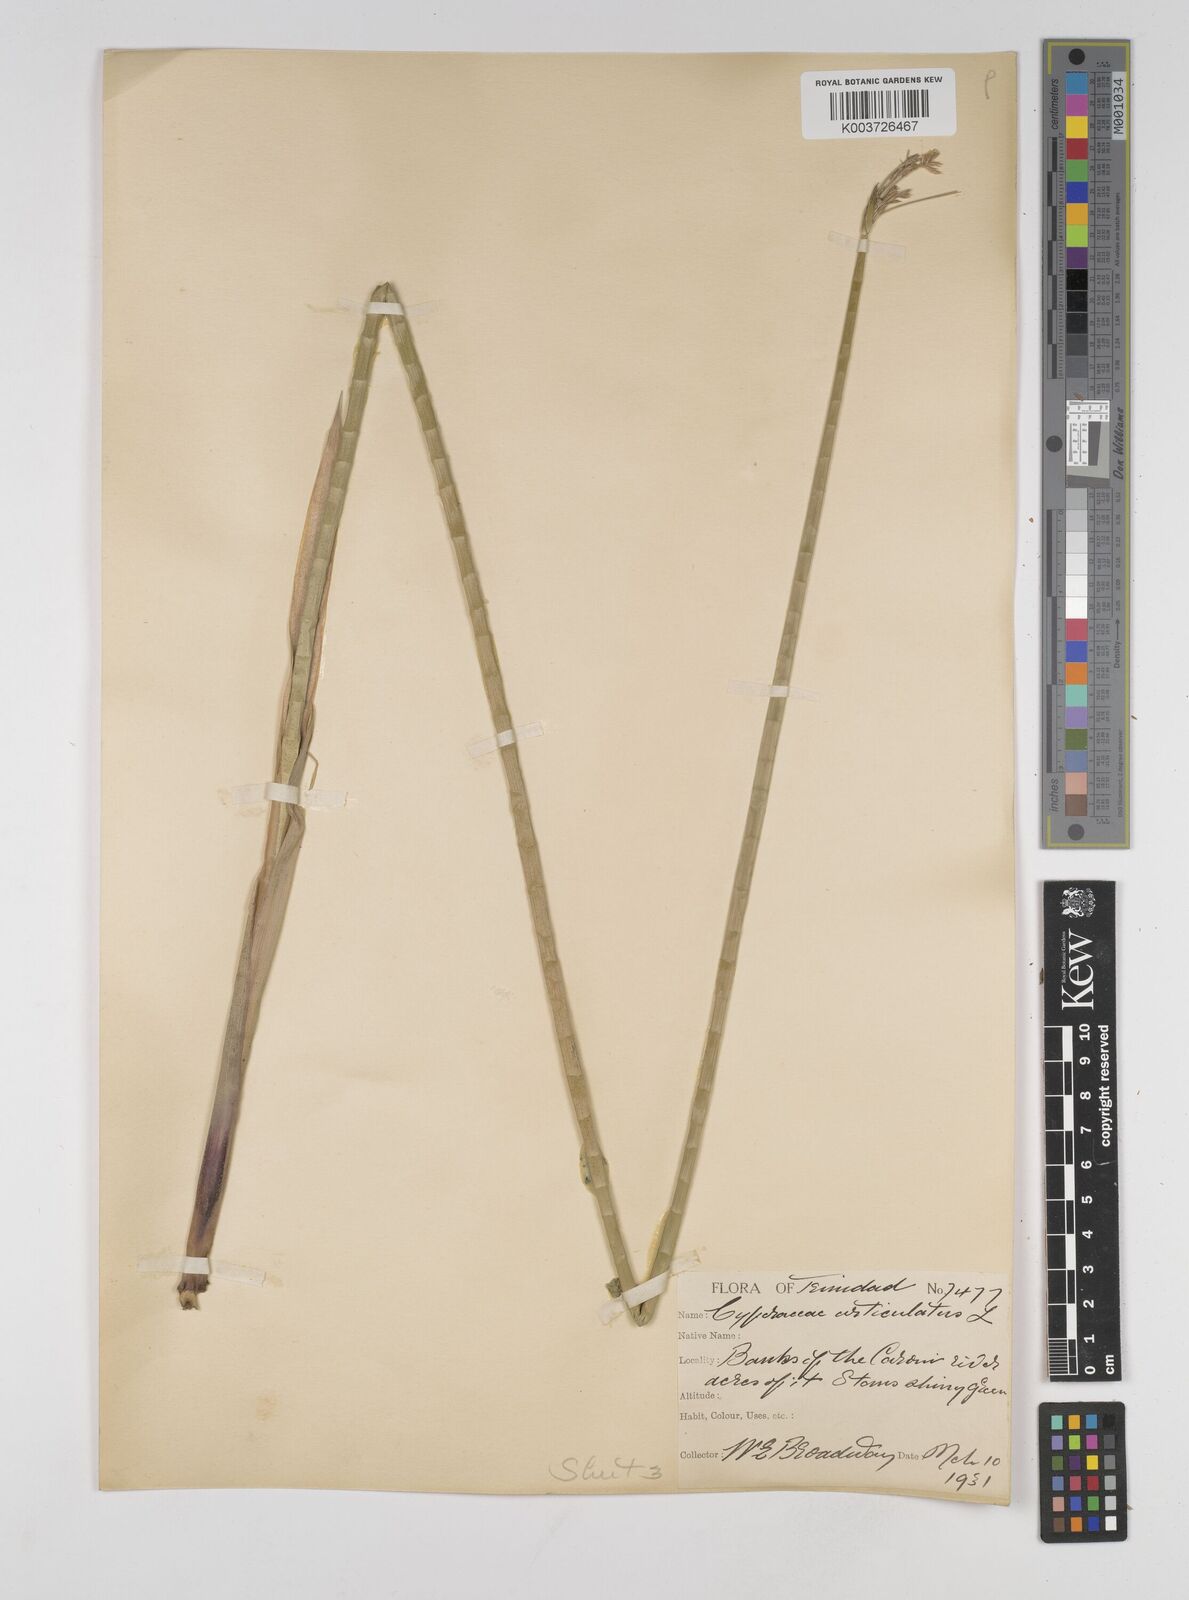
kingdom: Plantae
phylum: Tracheophyta
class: Liliopsida
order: Poales
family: Cyperaceae
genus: Cyperus
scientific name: Cyperus articulatus
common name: Jointed flatsedge
